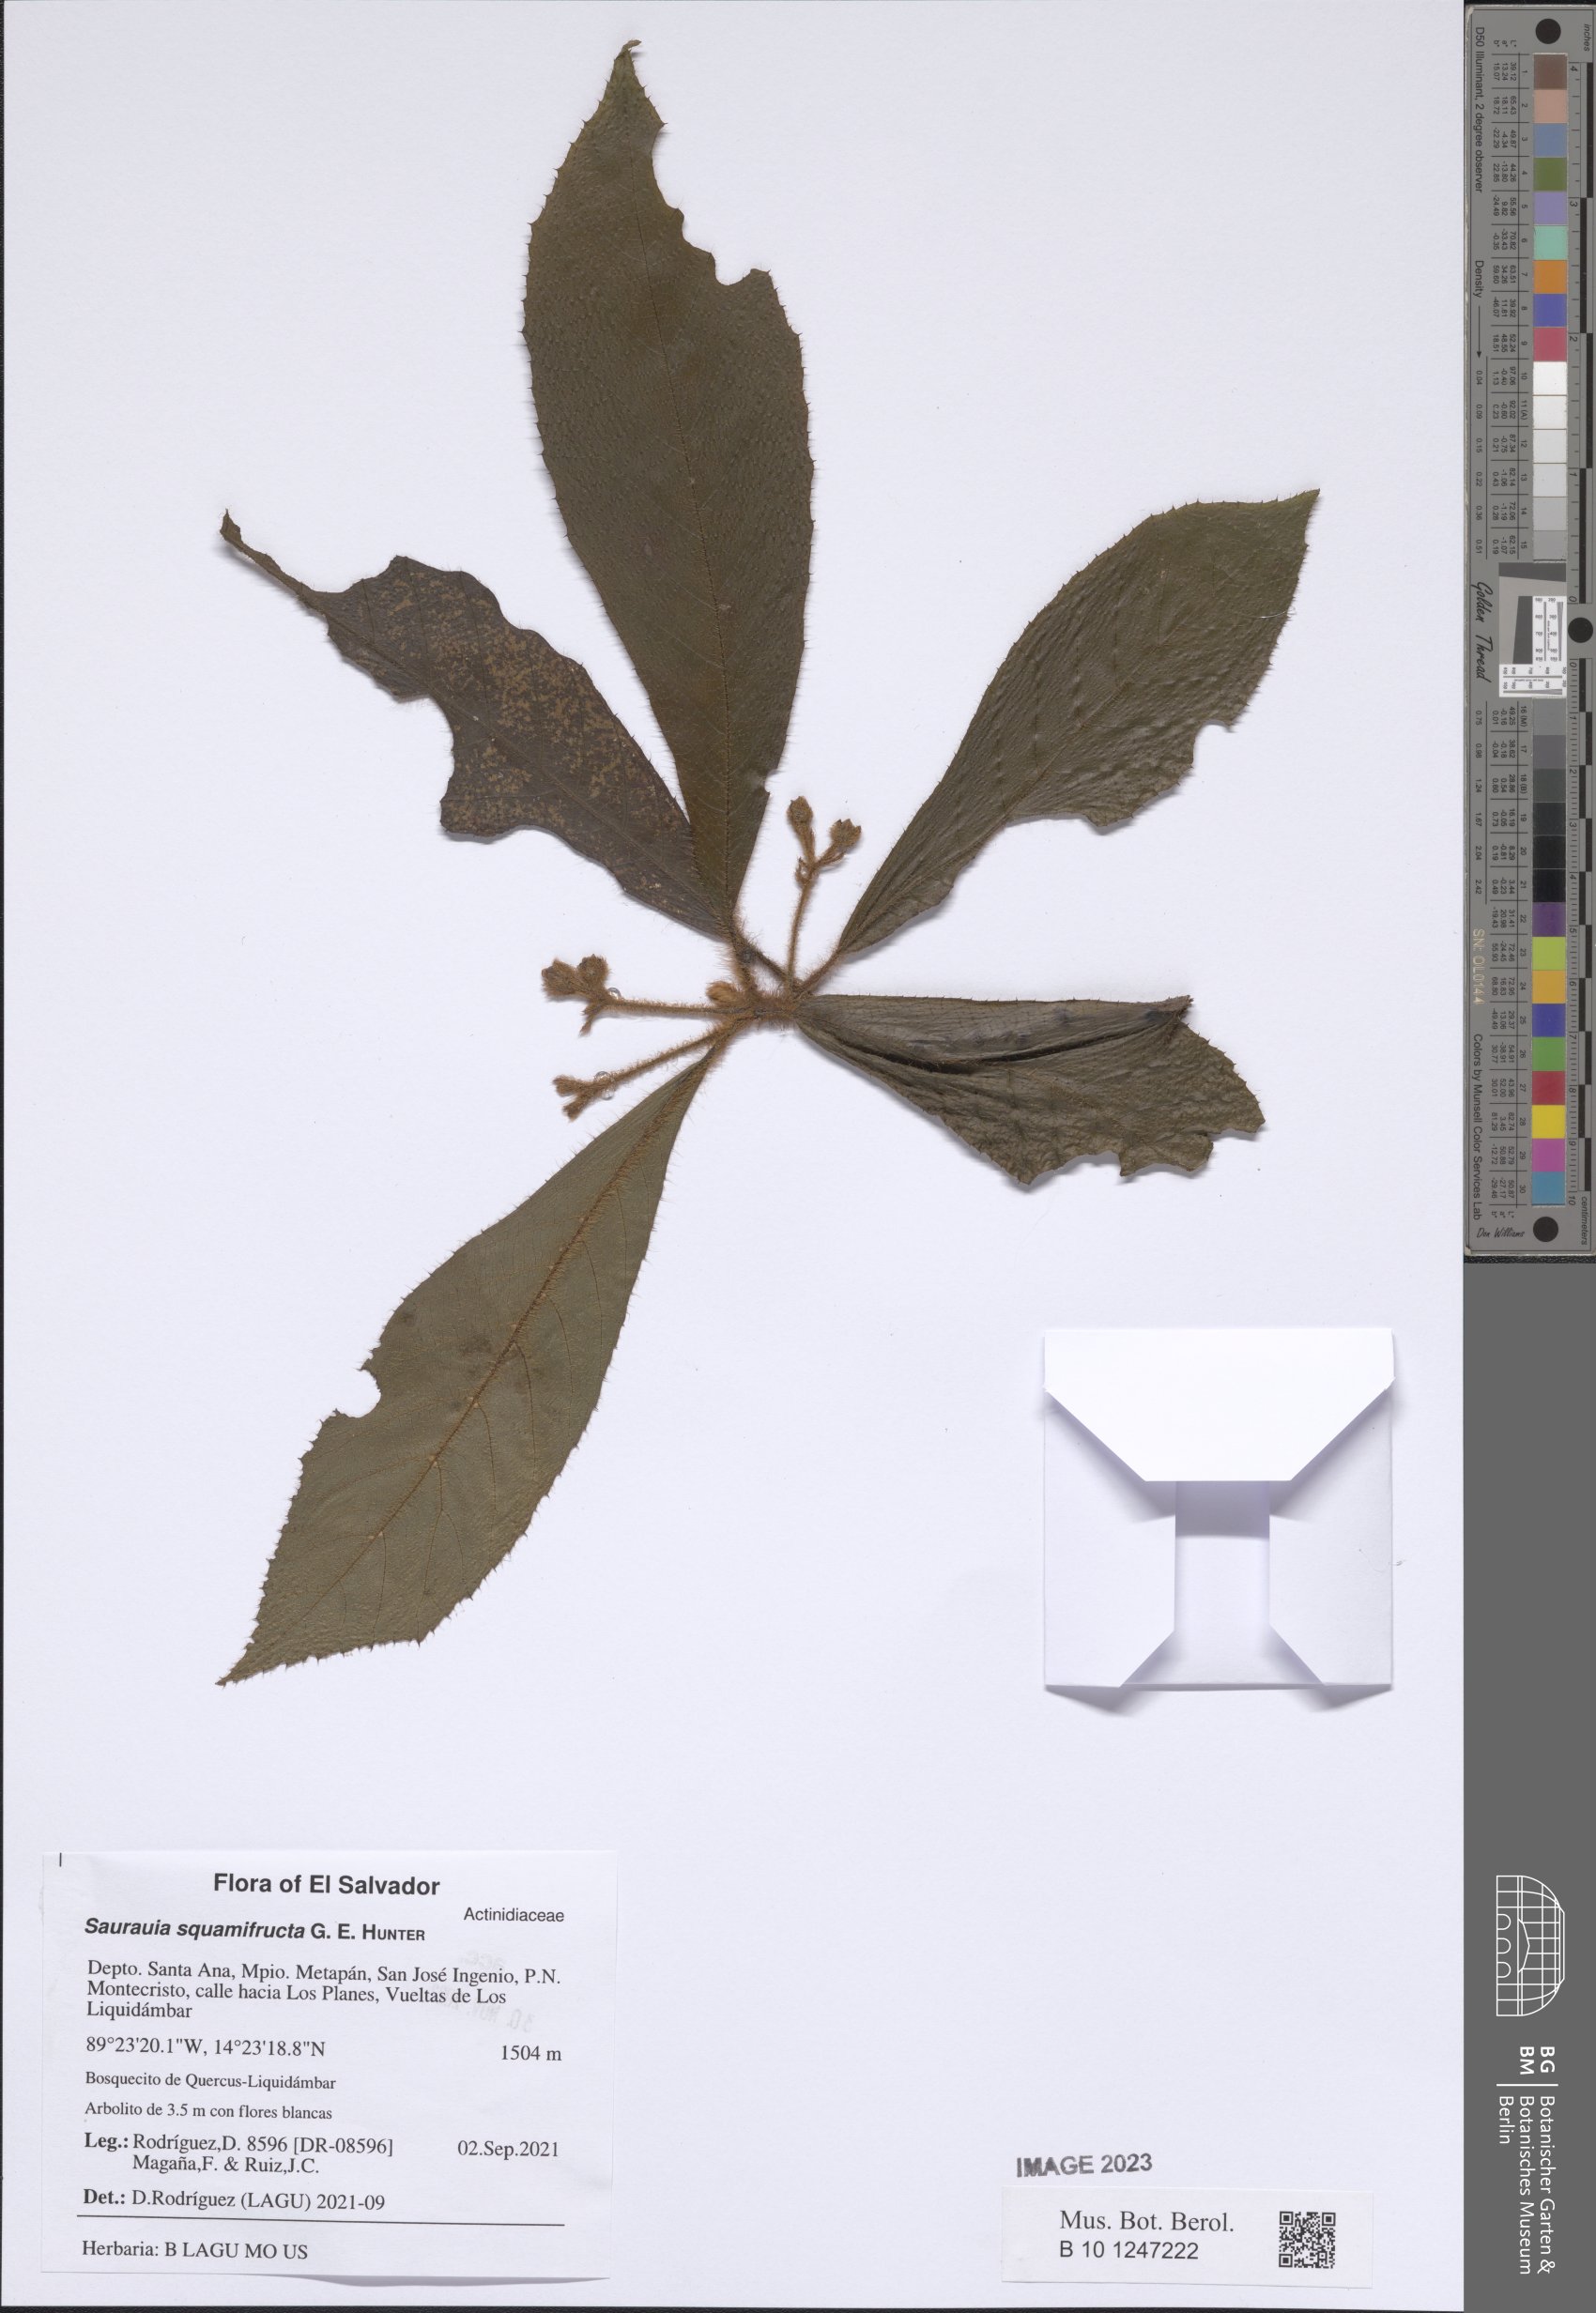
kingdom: Plantae
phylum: Tracheophyta
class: Magnoliopsida
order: Ericales
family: Actinidiaceae
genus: Saurauia
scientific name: Saurauia squamifructa
